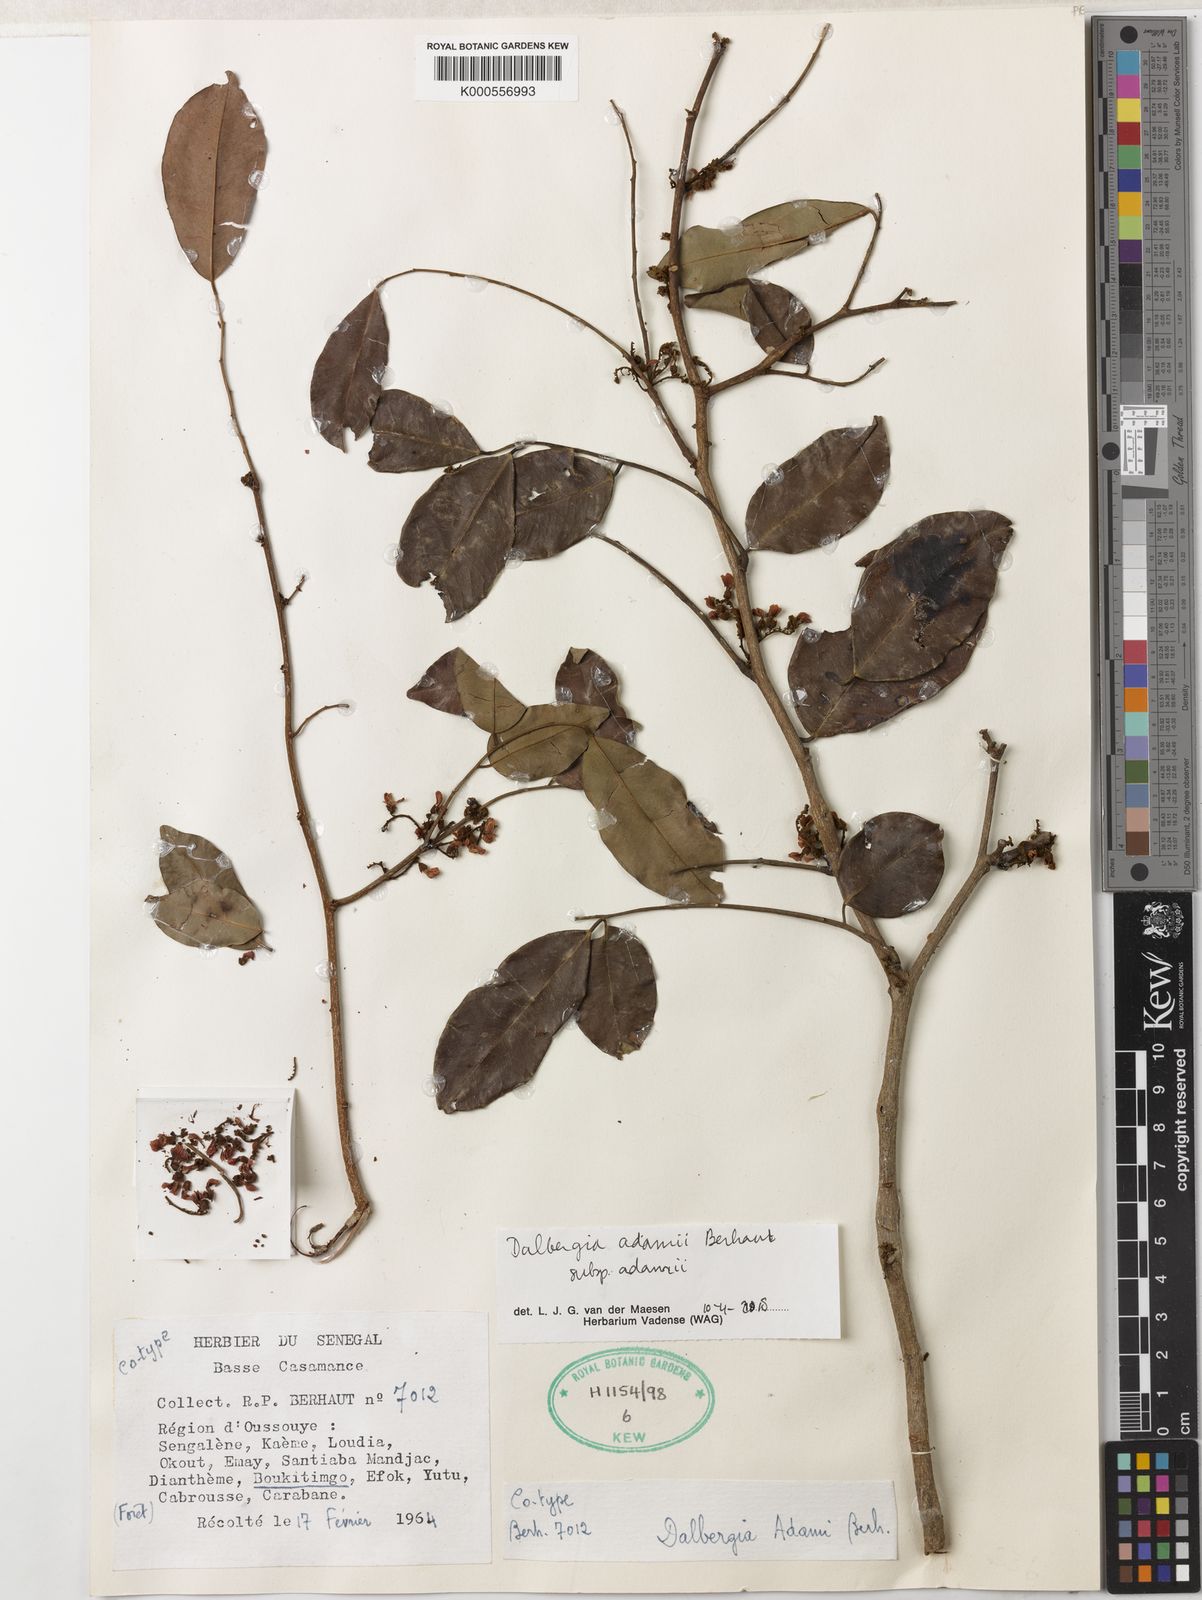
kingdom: Plantae
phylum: Tracheophyta
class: Magnoliopsida
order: Fabales
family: Fabaceae
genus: Dalbergia
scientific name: Dalbergia adamii
